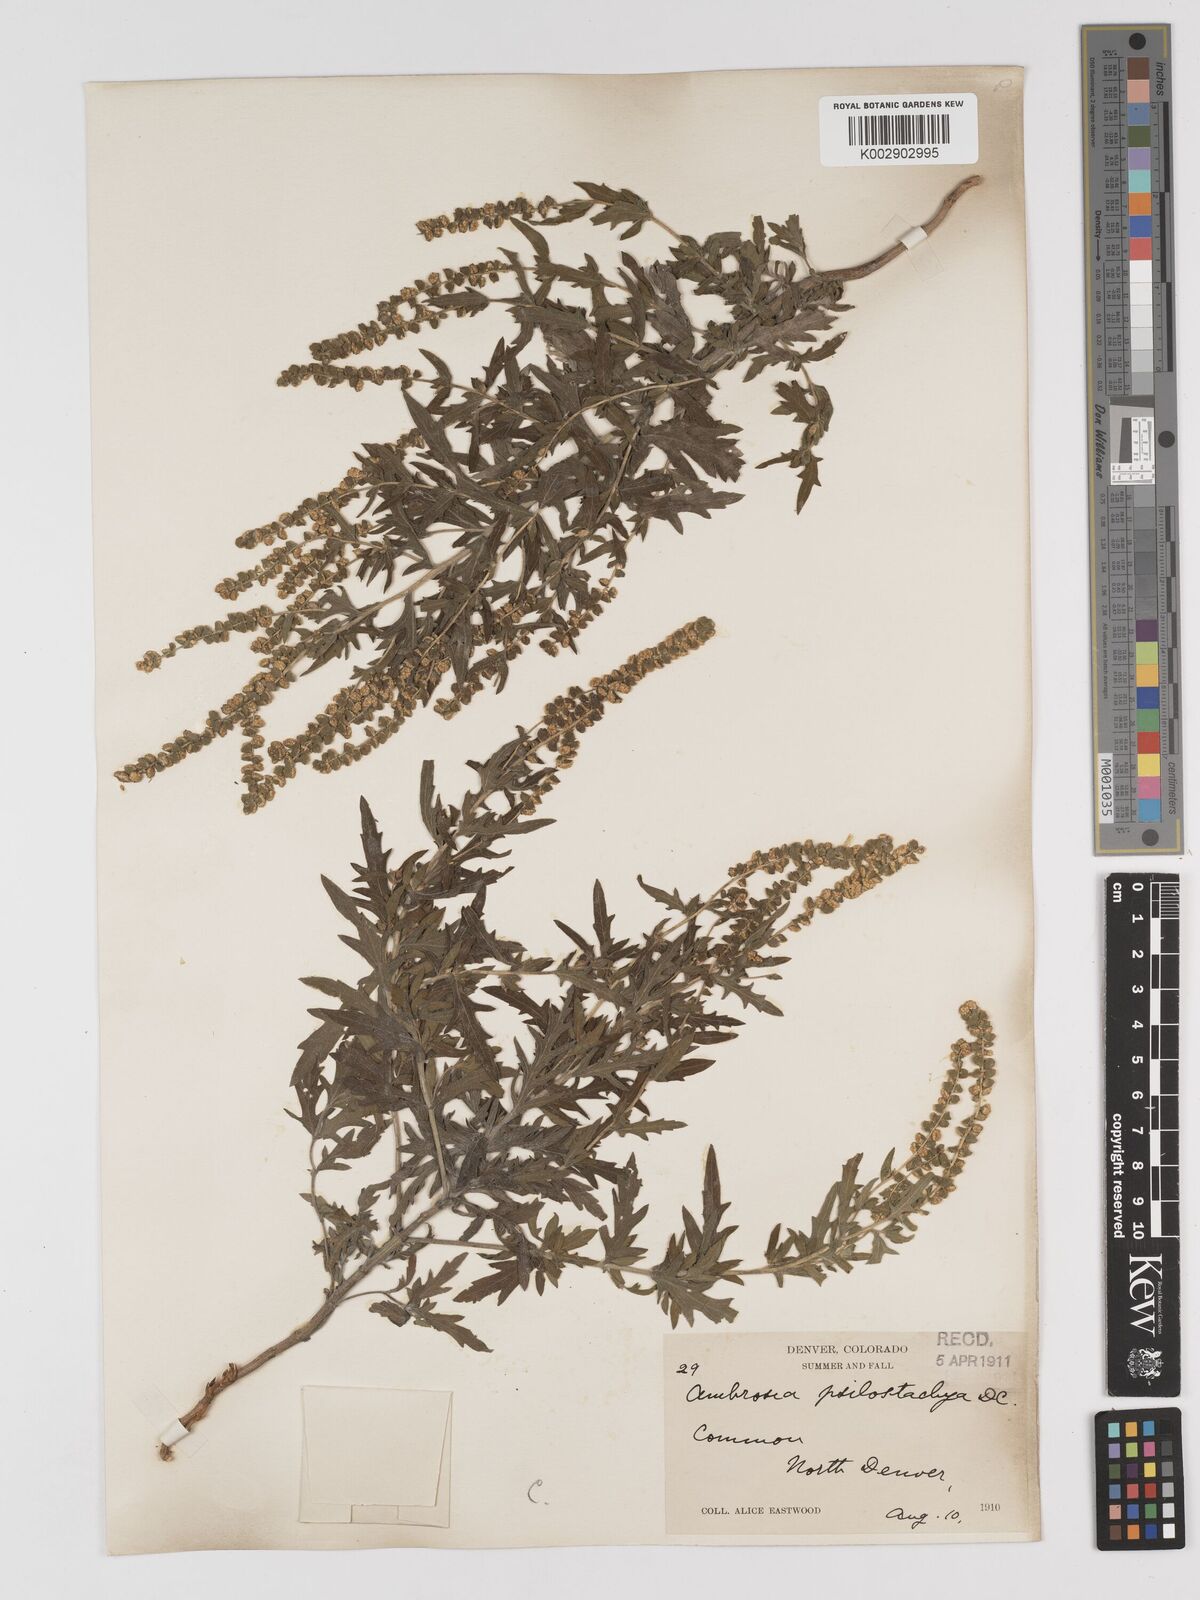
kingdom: Plantae
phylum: Tracheophyta
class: Magnoliopsida
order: Asterales
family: Asteraceae
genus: Ambrosia
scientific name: Ambrosia psilostachya
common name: Perennial ragweed
